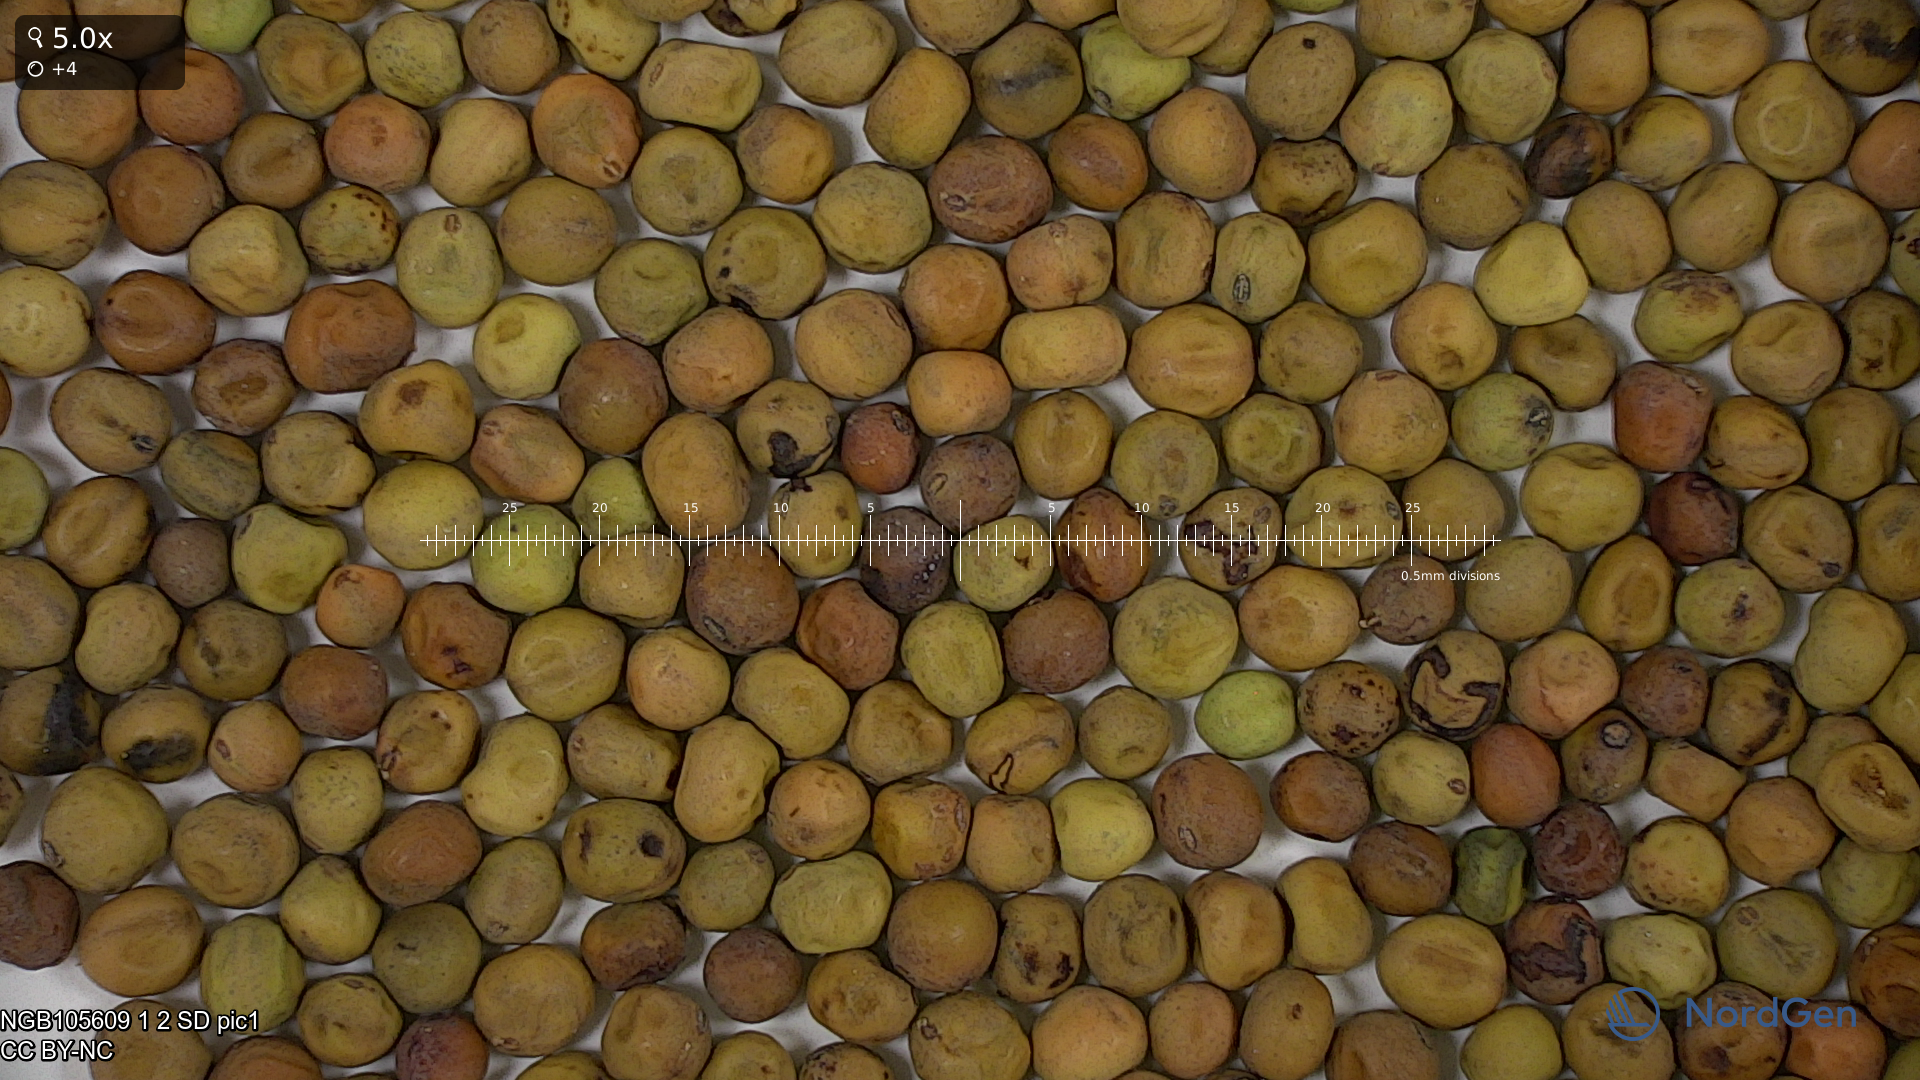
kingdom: Plantae
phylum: Tracheophyta
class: Magnoliopsida
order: Fabales
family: Fabaceae
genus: Lathyrus
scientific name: Lathyrus oleraceus
